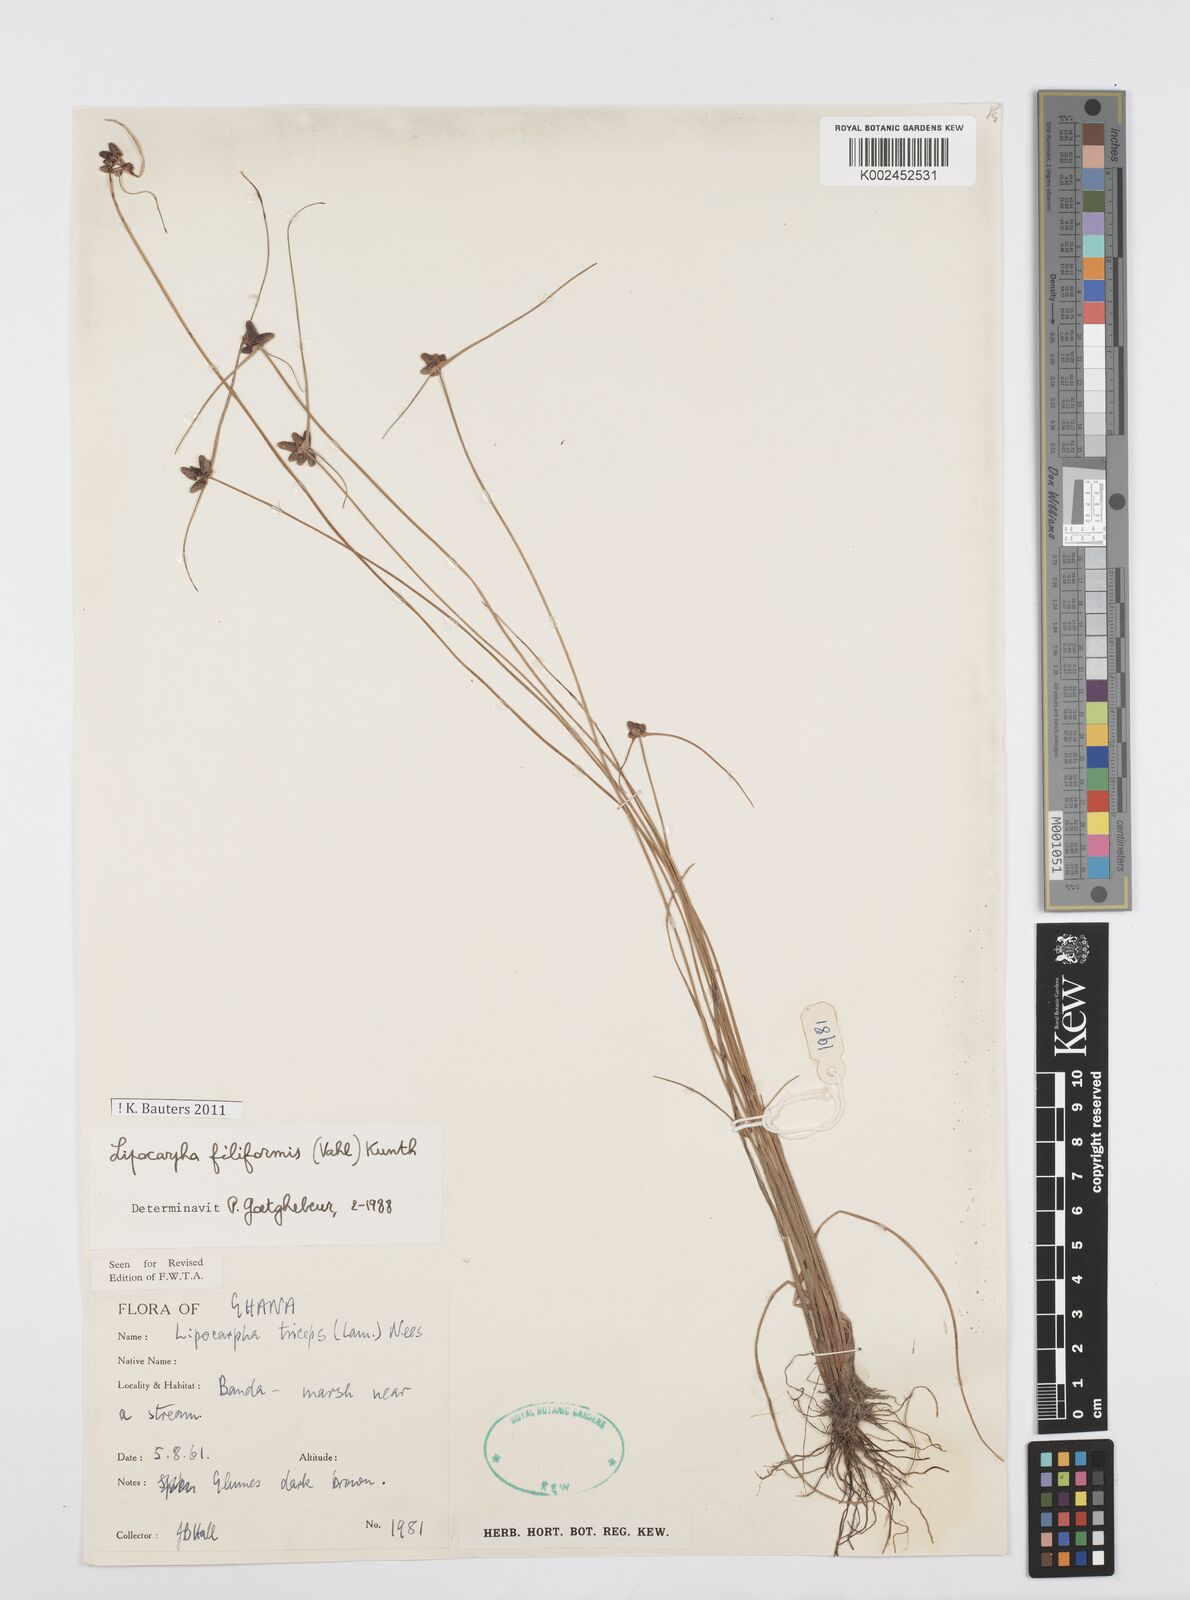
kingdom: Plantae
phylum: Tracheophyta
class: Liliopsida
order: Poales
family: Cyperaceae
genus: Cyperus
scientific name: Cyperus filiformis
